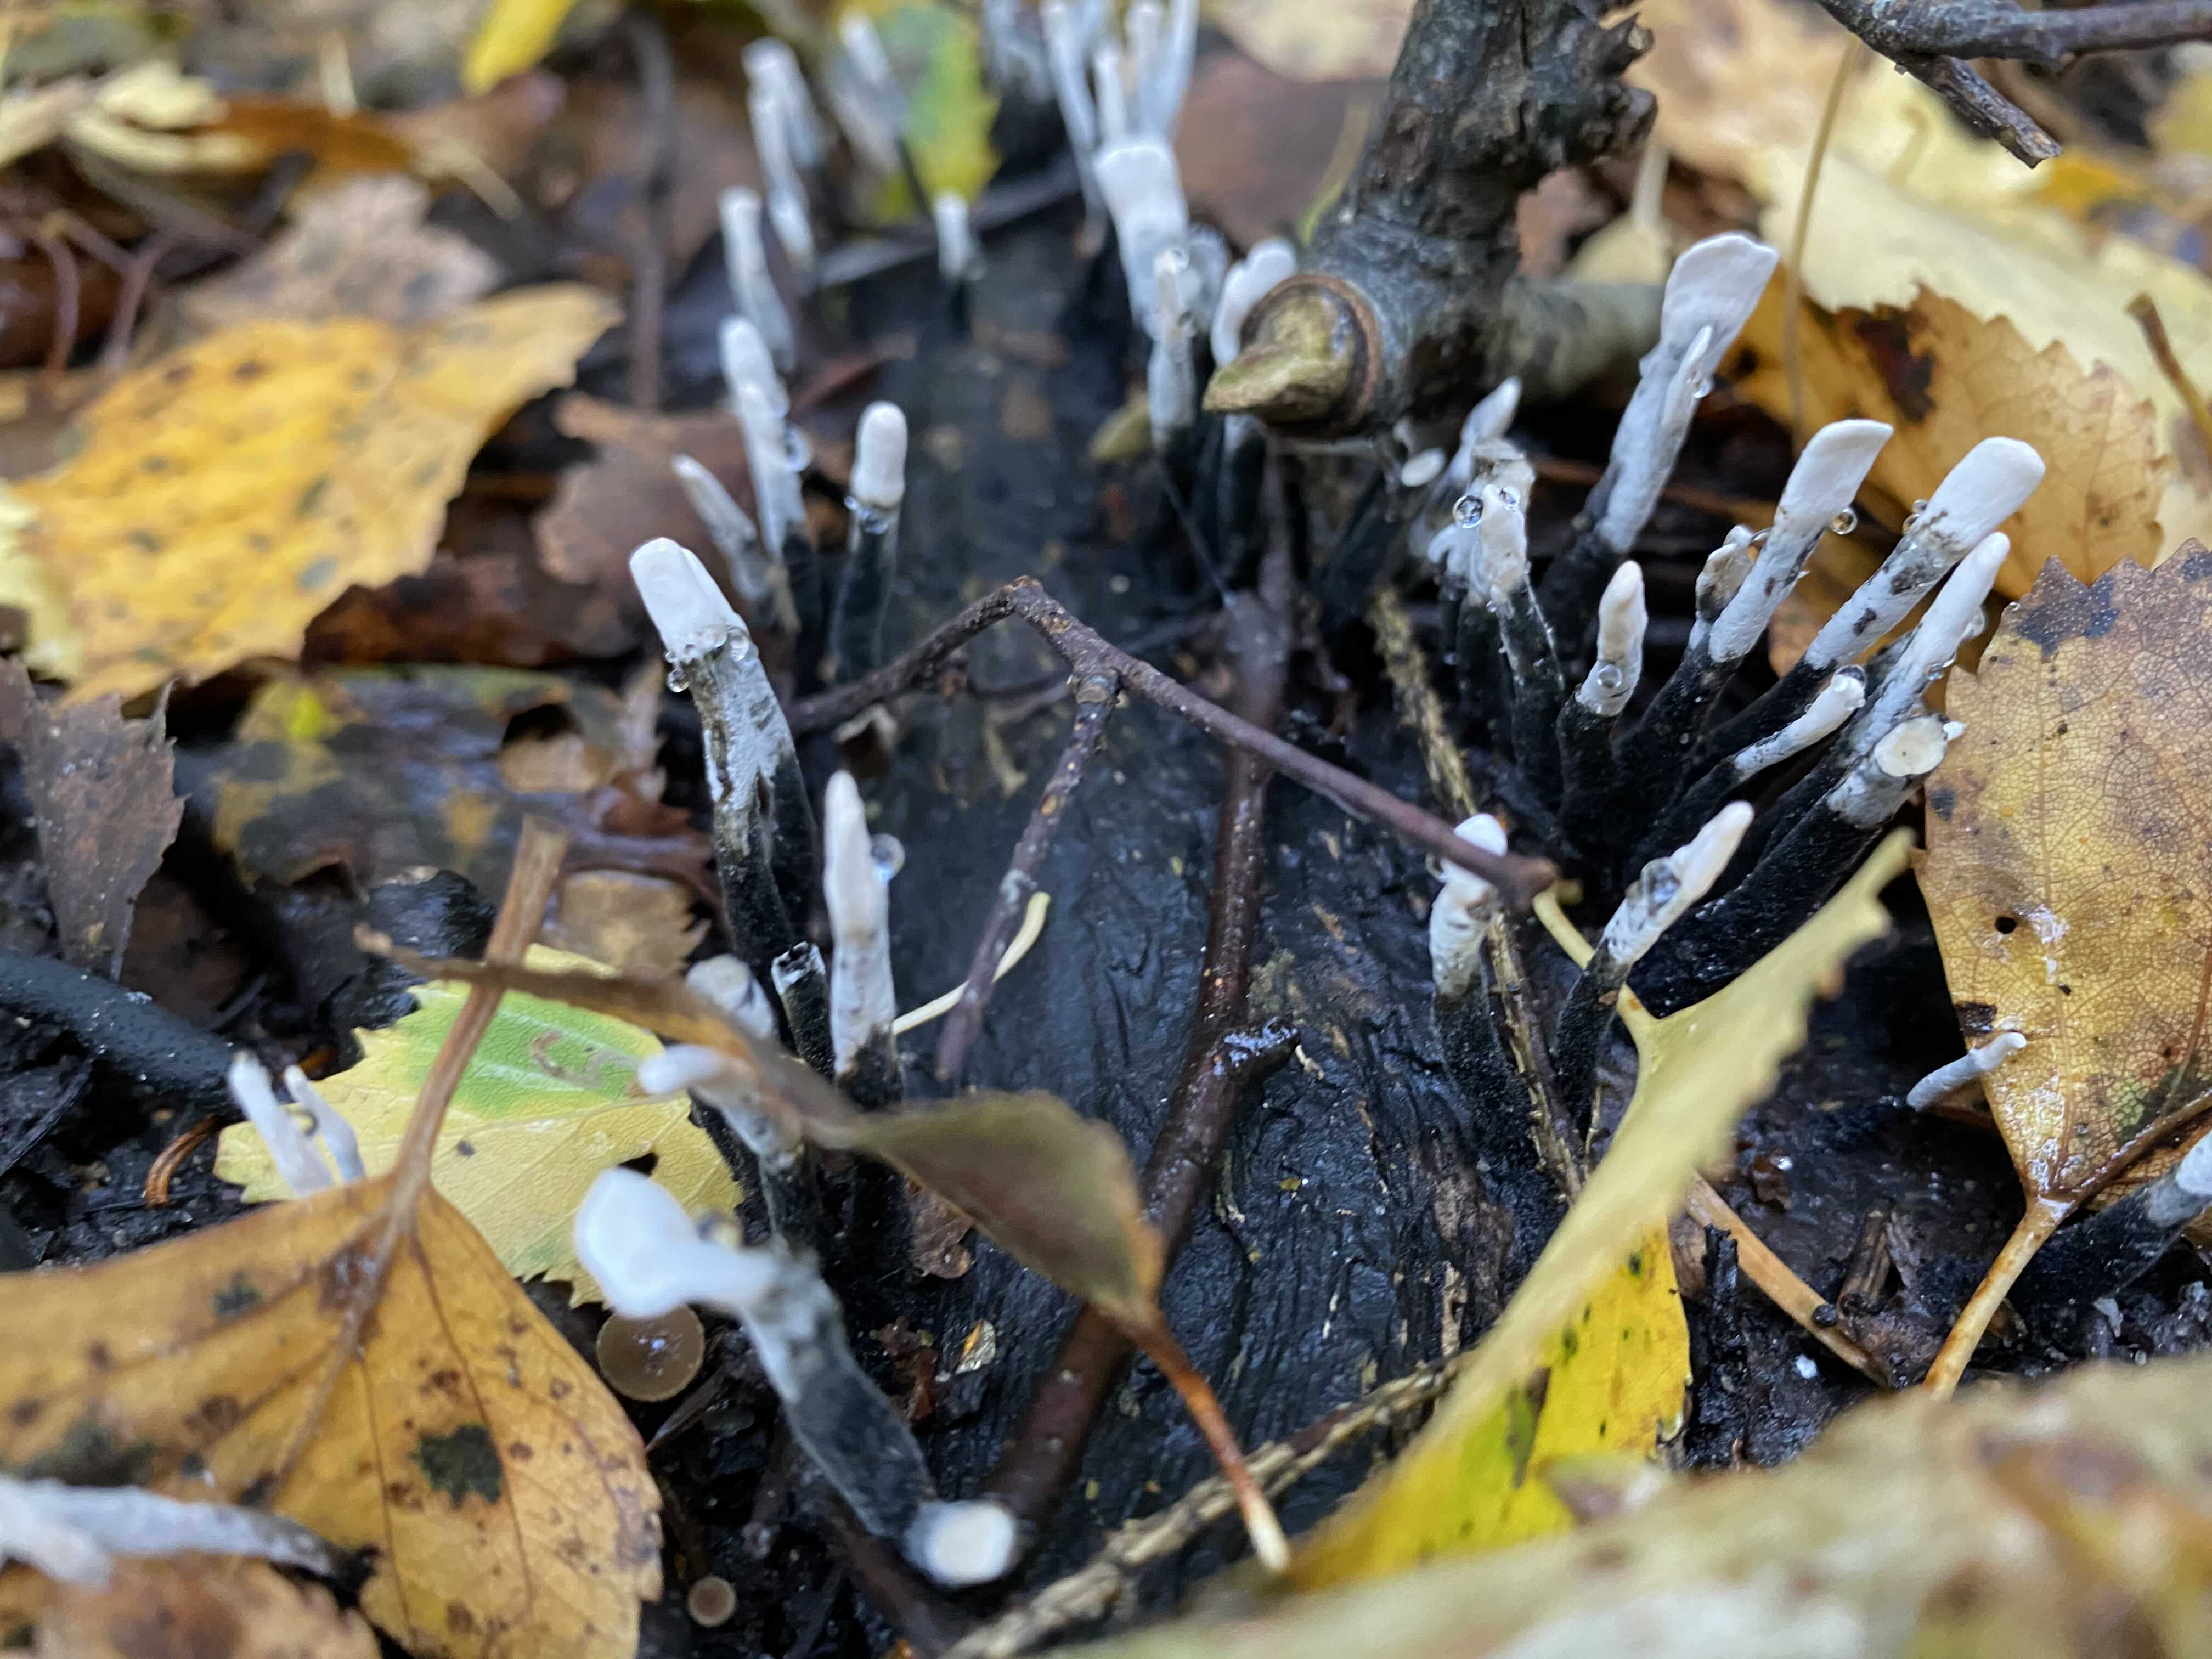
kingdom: Fungi
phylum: Ascomycota
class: Sordariomycetes
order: Xylariales
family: Xylariaceae
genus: Xylaria
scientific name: Xylaria hypoxylon
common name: grenet stødsvamp
